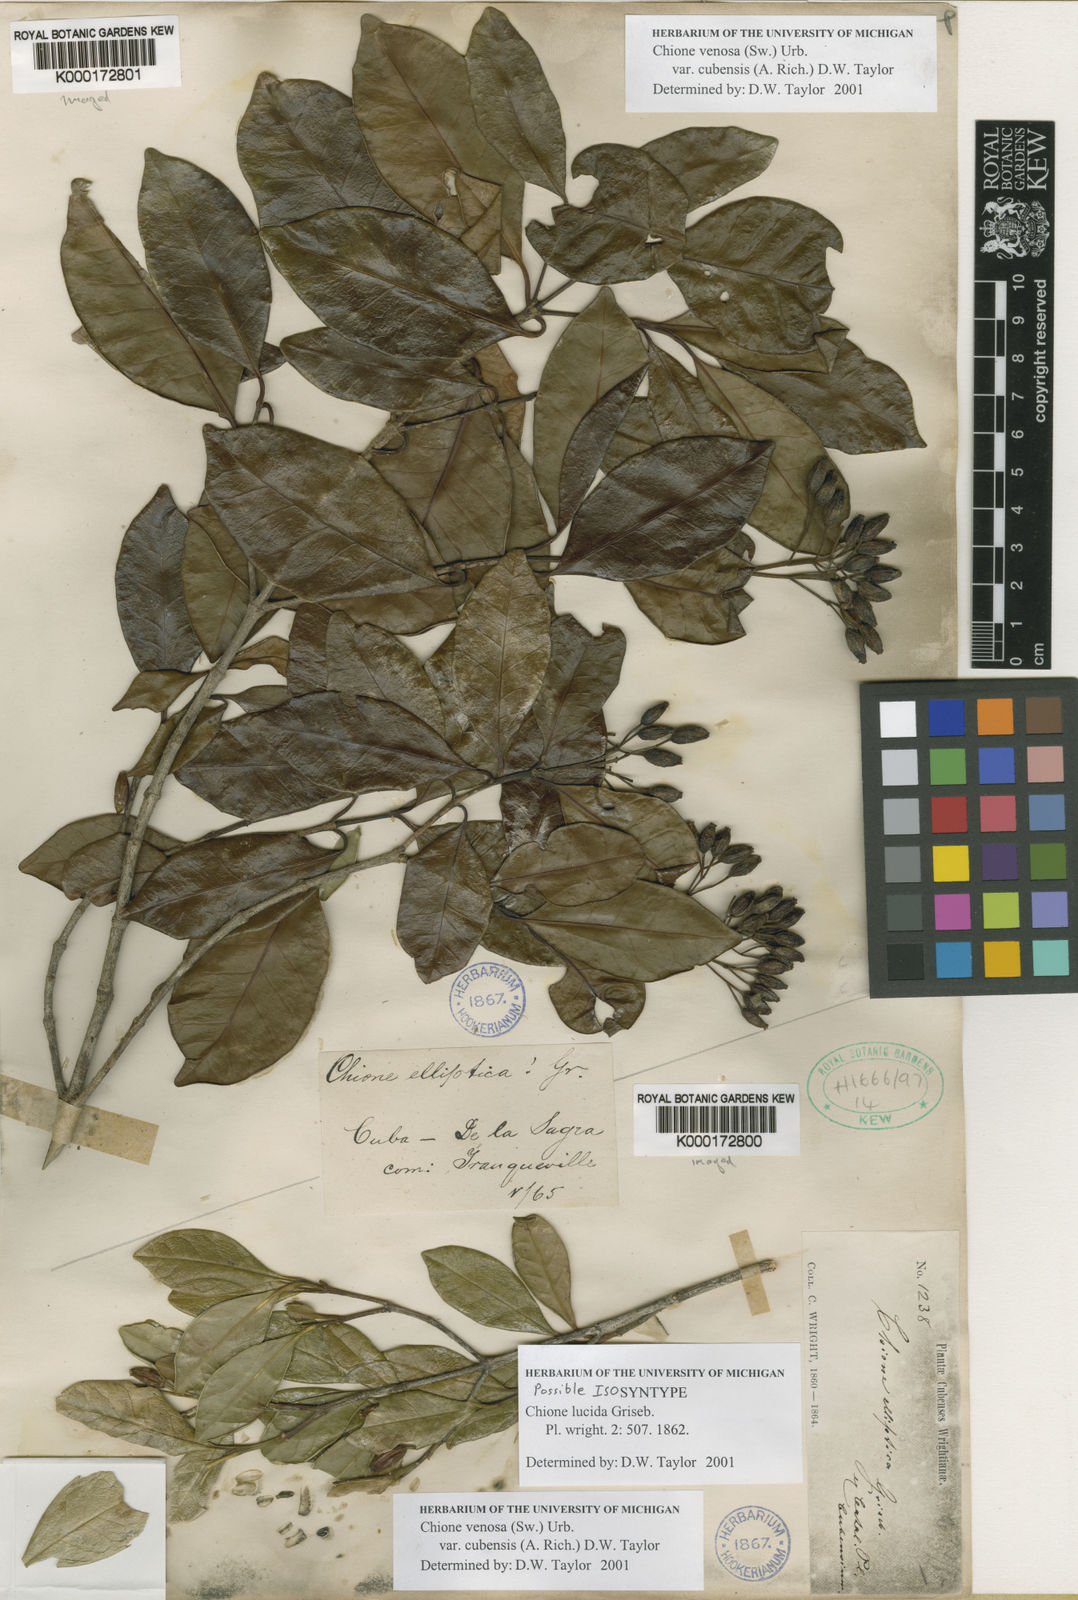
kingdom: Plantae
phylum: Tracheophyta
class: Magnoliopsida
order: Gentianales
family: Rubiaceae
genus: Chione
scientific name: Chione venosa
